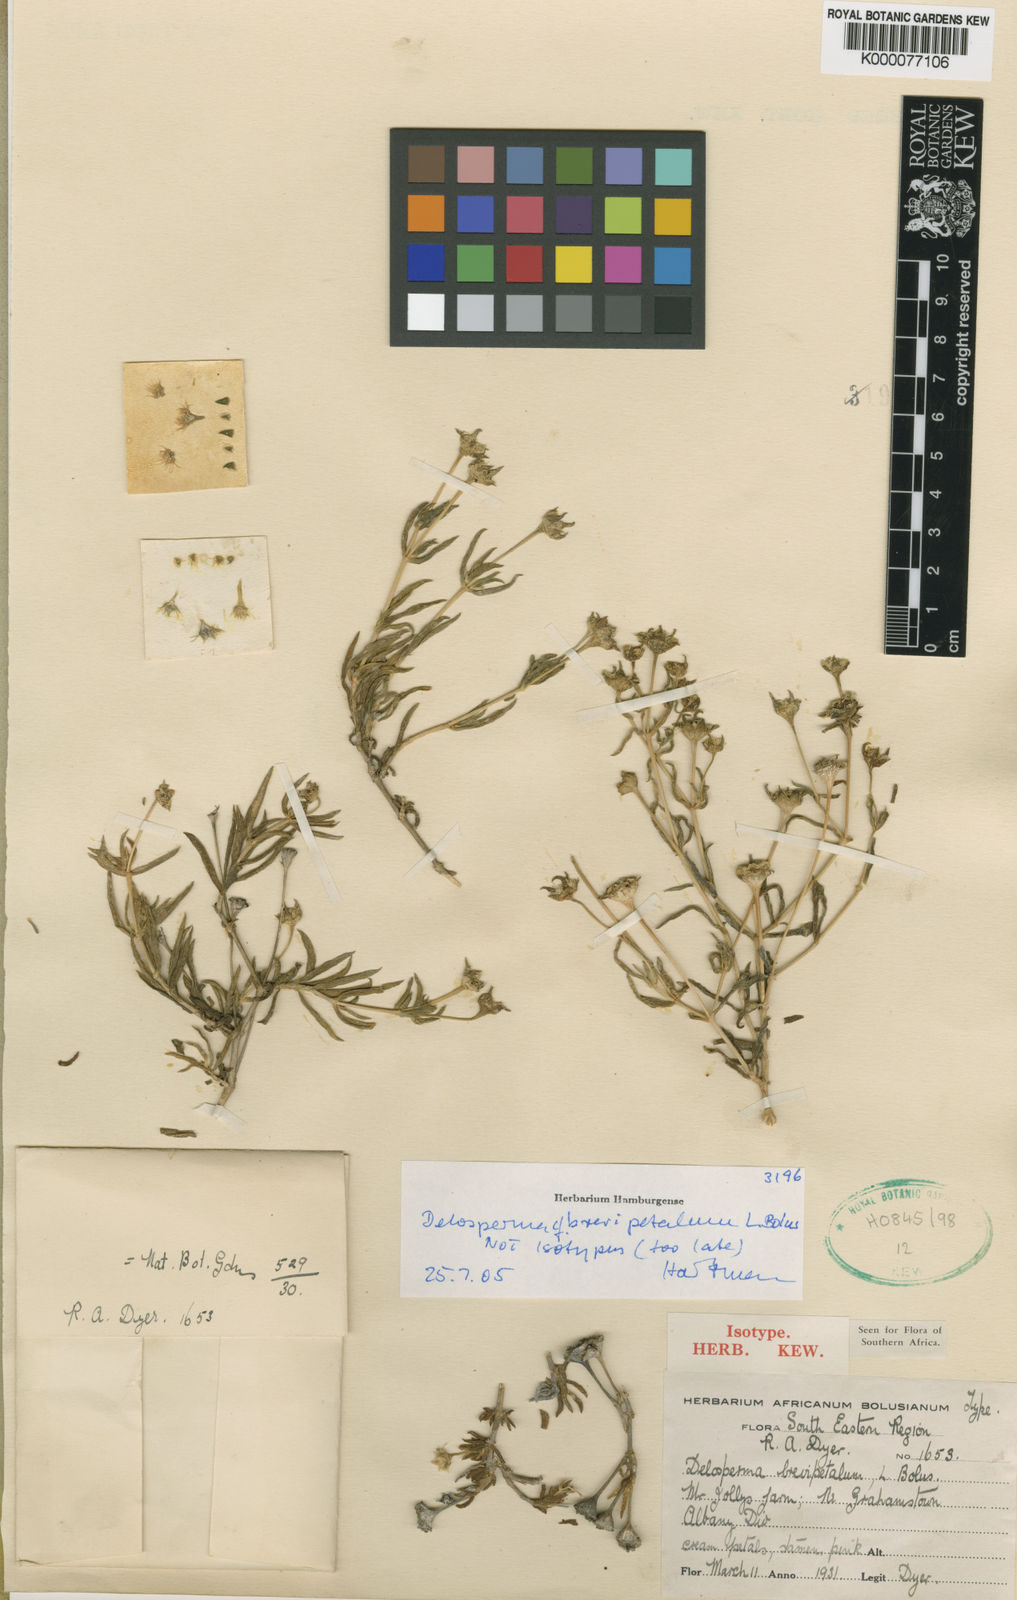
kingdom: Plantae
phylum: Tracheophyta
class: Magnoliopsida
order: Caryophyllales
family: Aizoaceae
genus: Delosperma
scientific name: Delosperma brevipetalum
